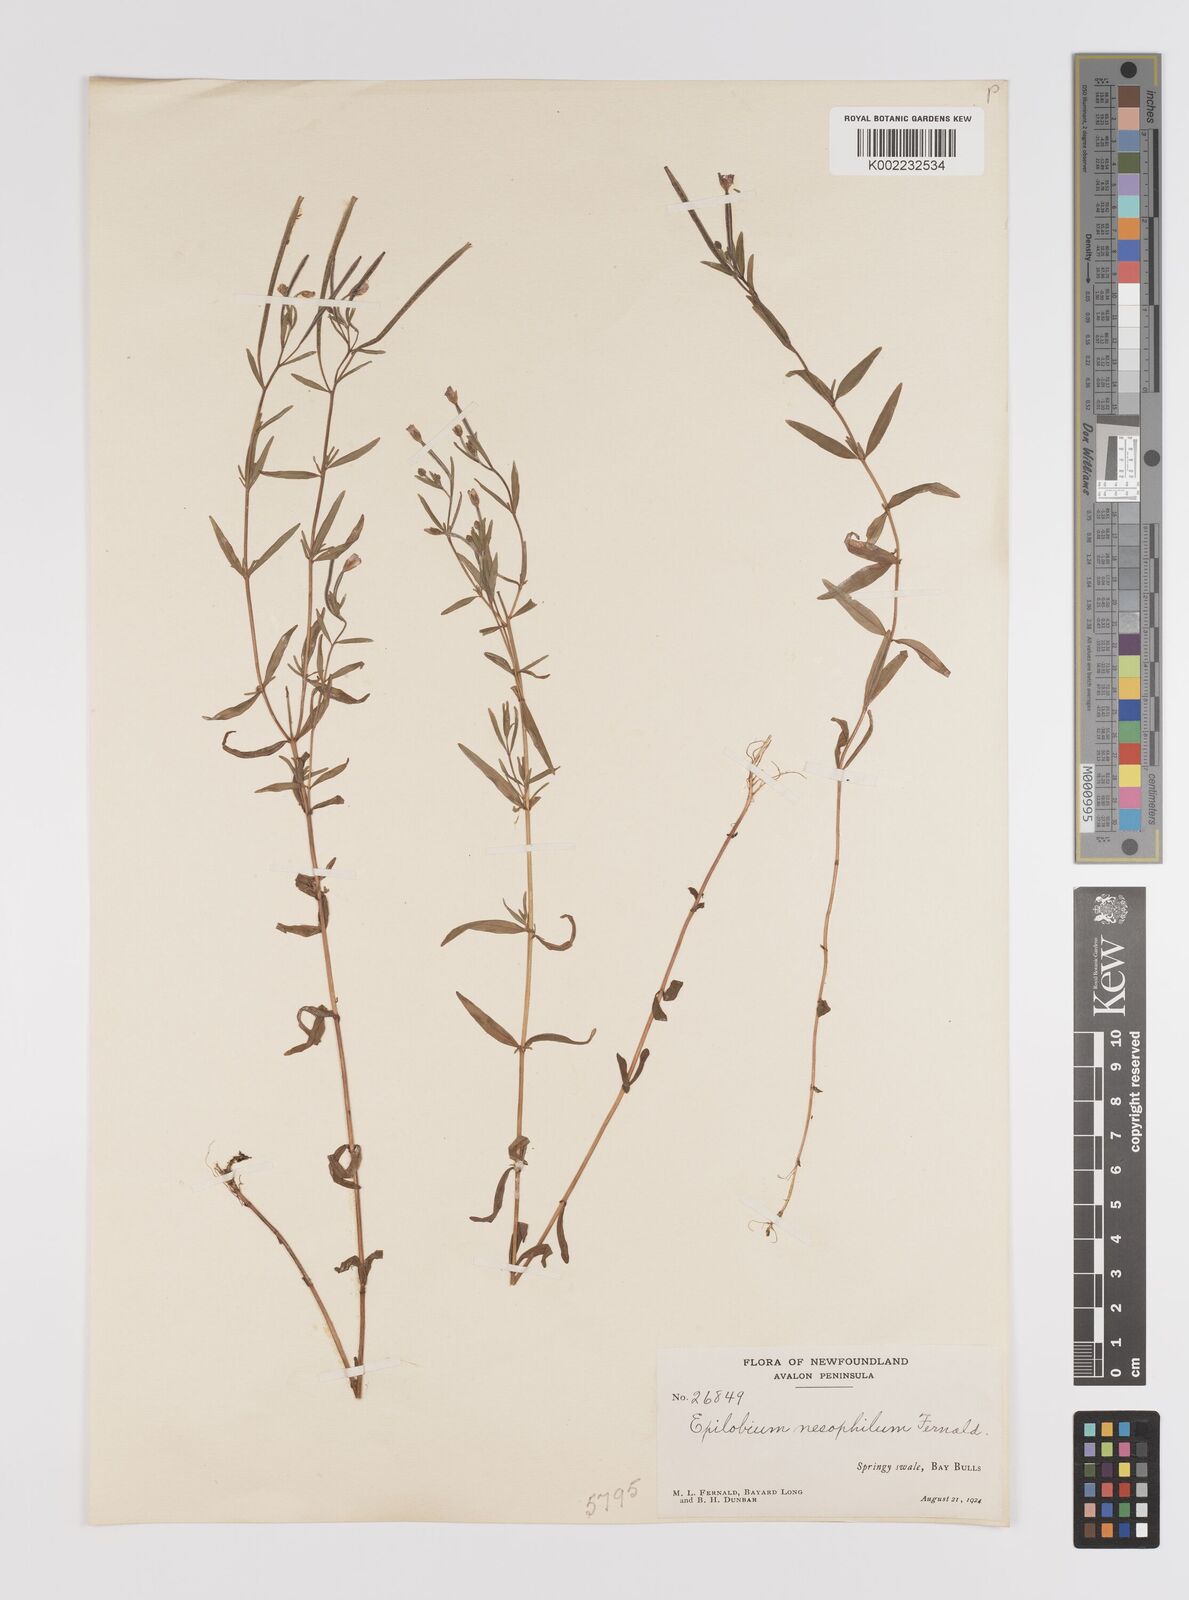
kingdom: Plantae
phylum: Tracheophyta
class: Magnoliopsida
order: Myrtales
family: Onagraceae
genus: Epilobium
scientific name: Epilobium leptophyllum
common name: Bog willowherb
